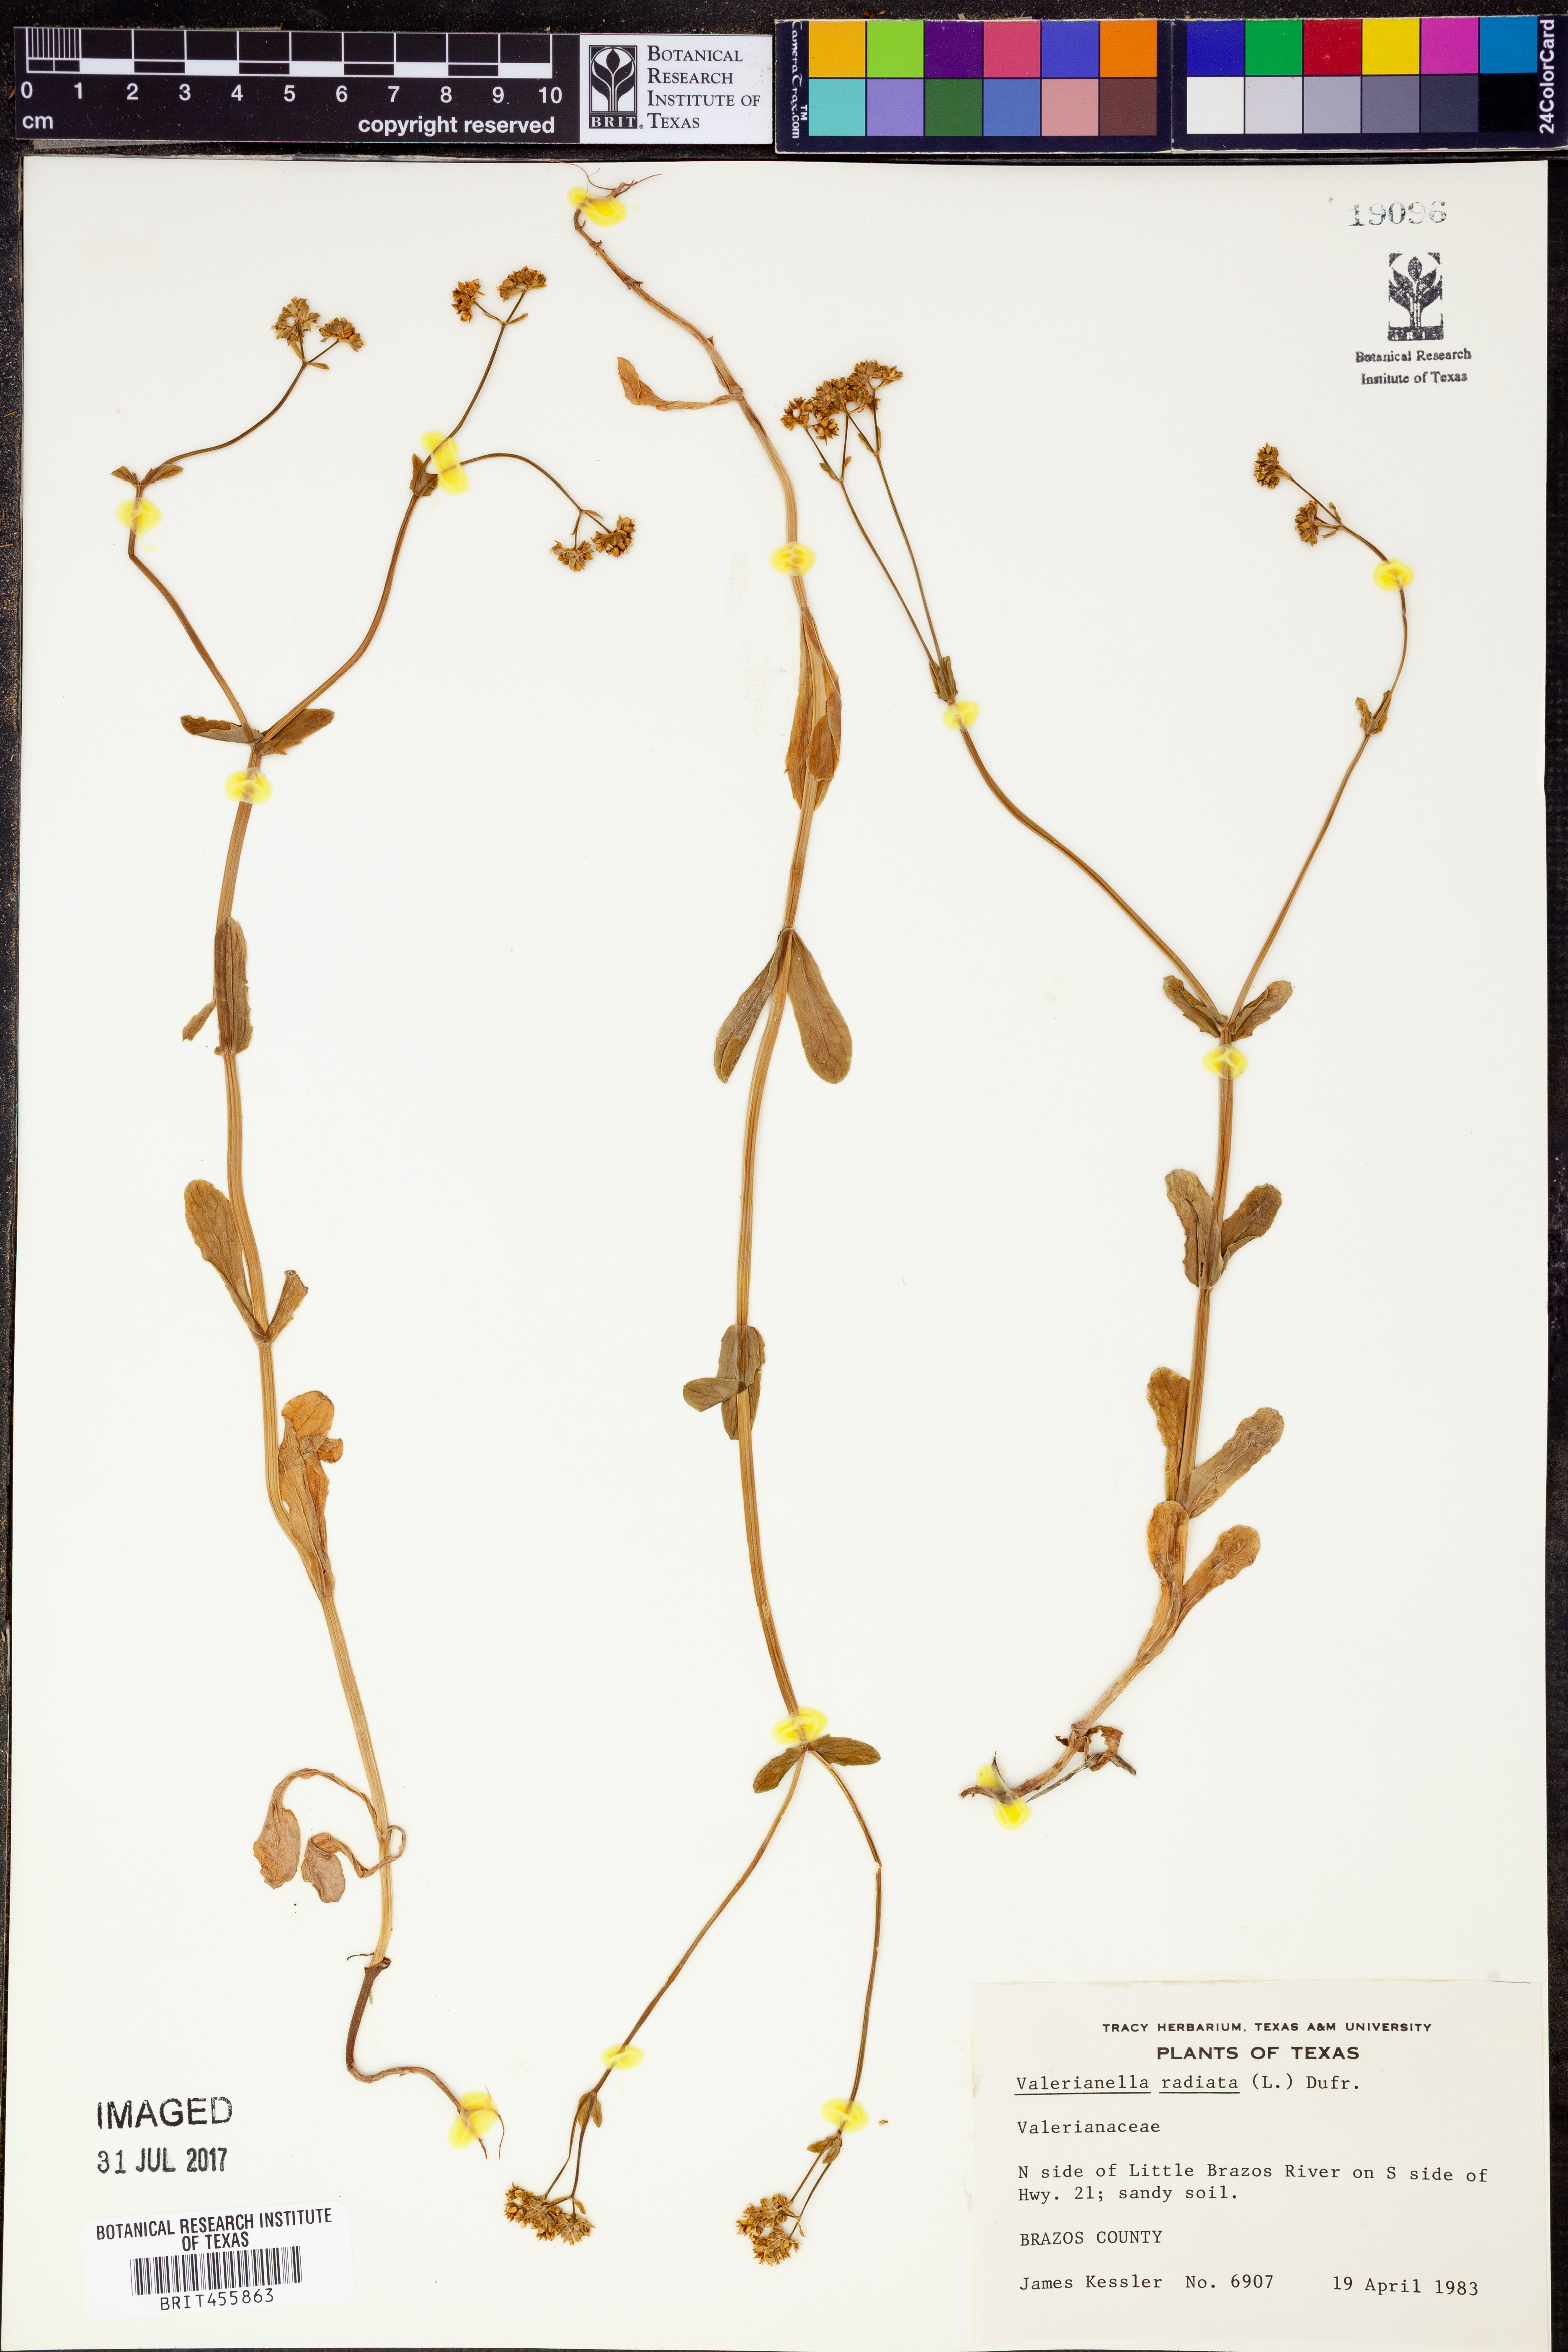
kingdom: Plantae
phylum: Tracheophyta
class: Magnoliopsida
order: Dipsacales
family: Caprifoliaceae
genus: Valerianella
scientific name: Valerianella radiata
